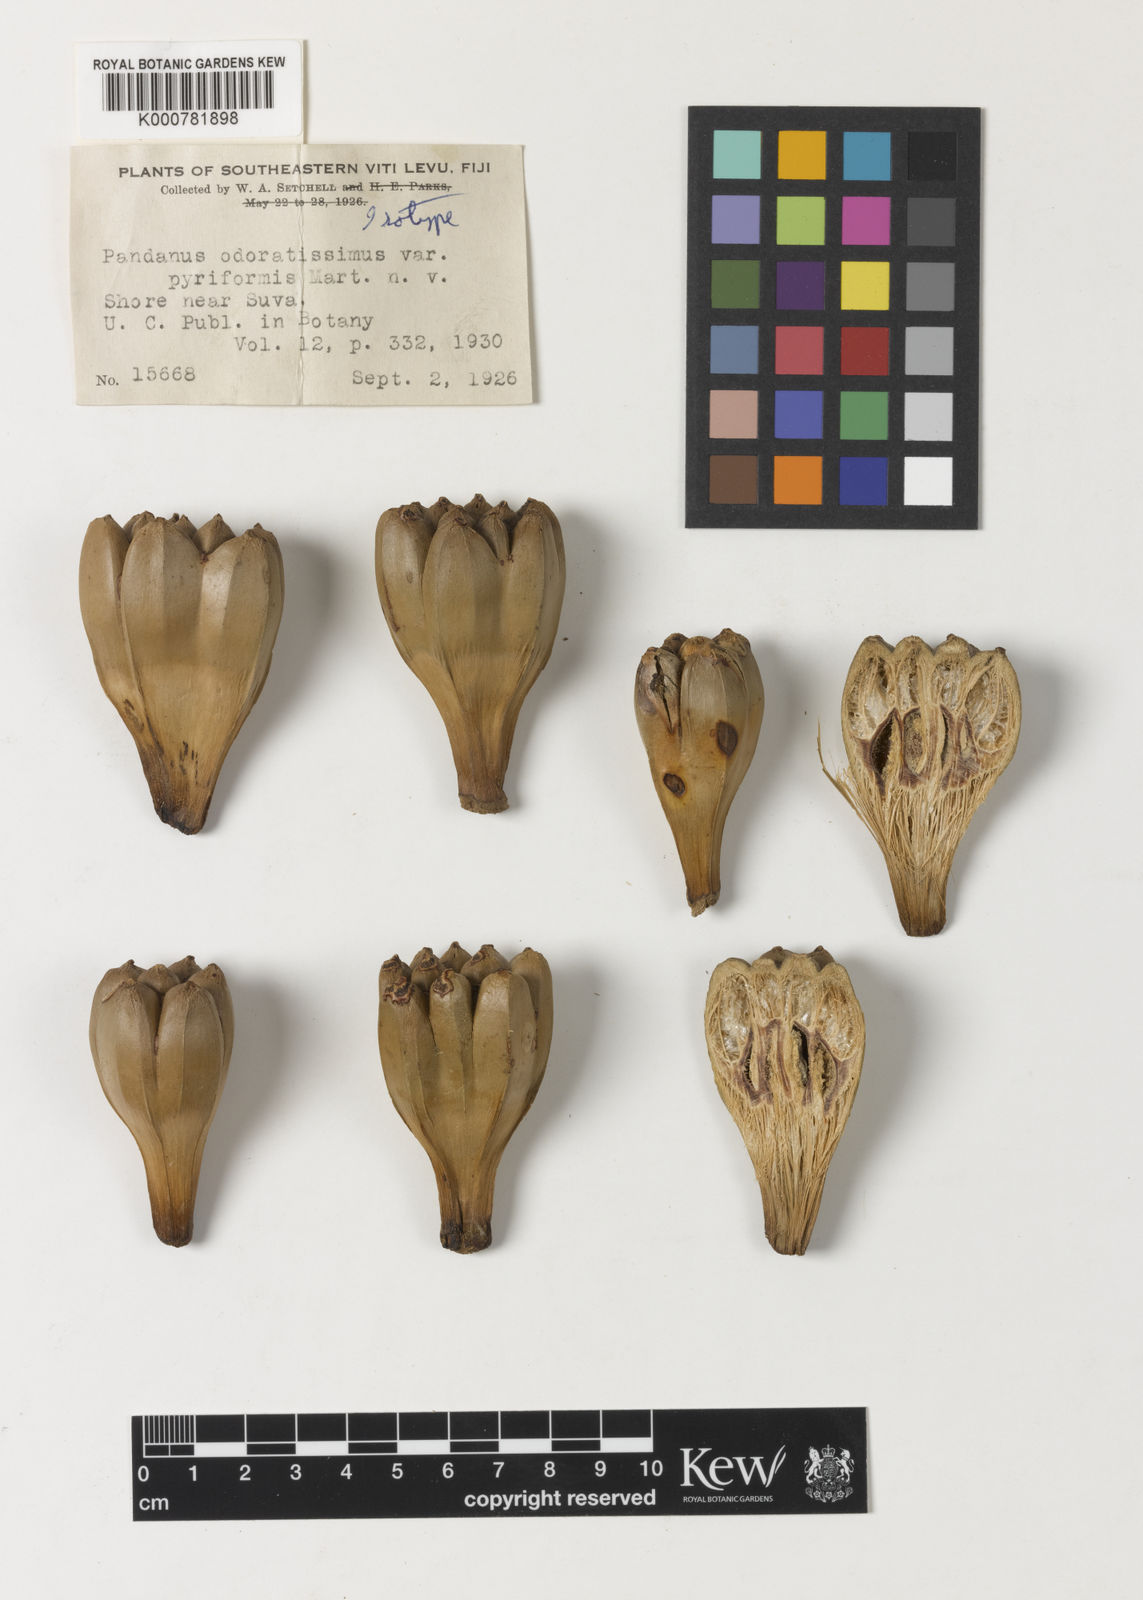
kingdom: Plantae
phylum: Tracheophyta
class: Liliopsida
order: Pandanales
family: Pandanaceae
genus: Pandanus
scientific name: Pandanus utilis
